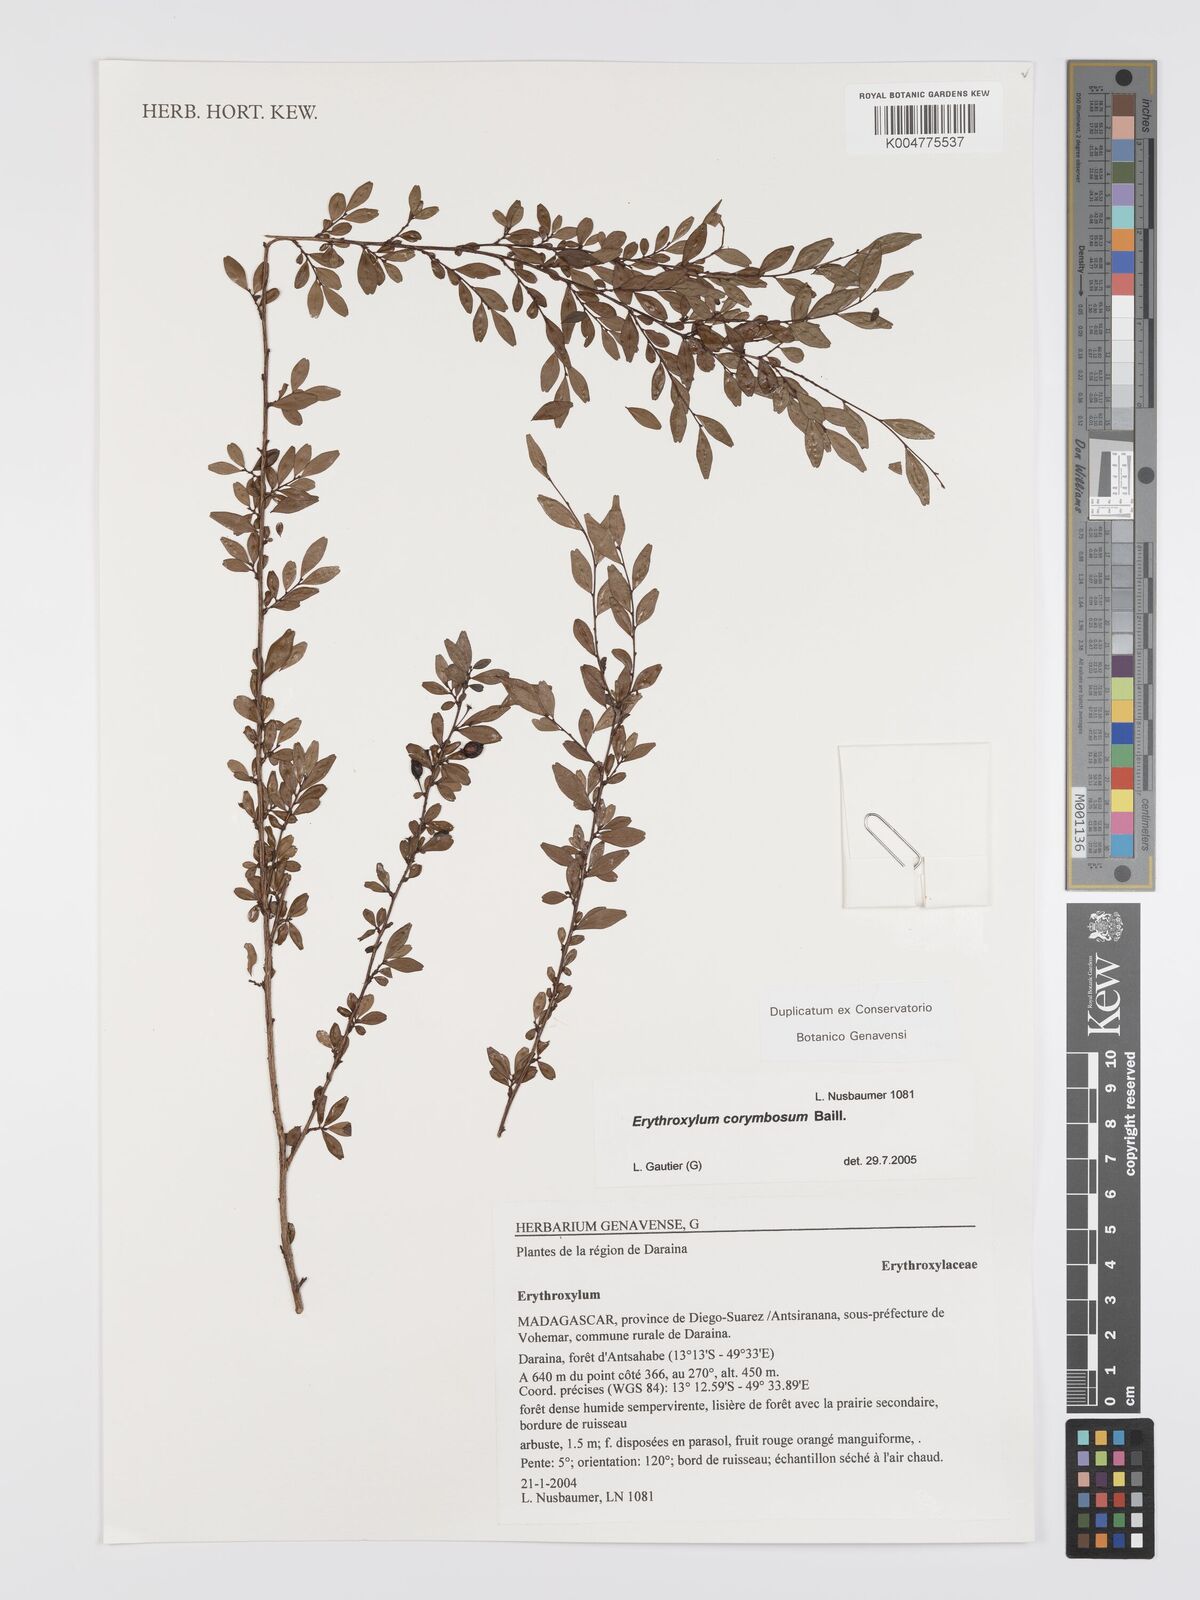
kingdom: Plantae
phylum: Tracheophyta
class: Magnoliopsida
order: Malpighiales
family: Erythroxylaceae
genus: Erythroxylum
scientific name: Erythroxylum corymbosum
